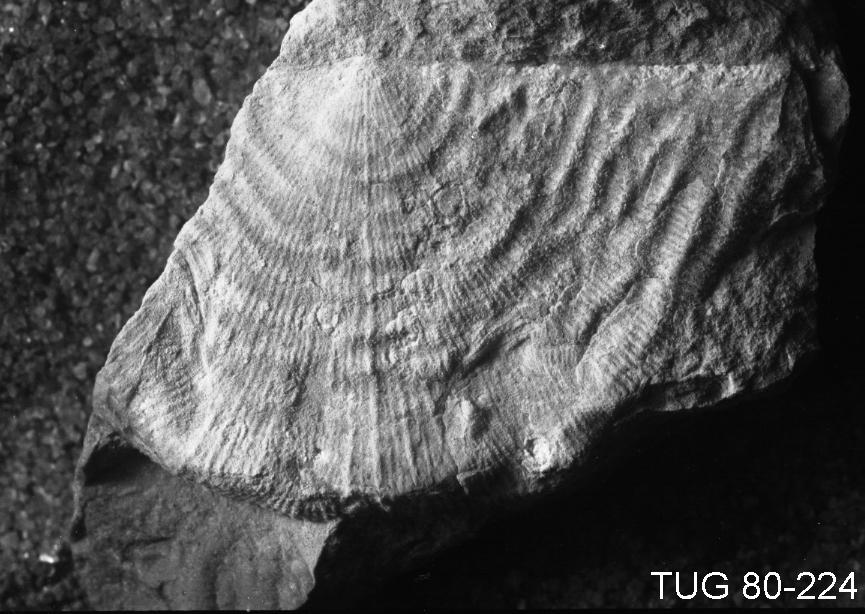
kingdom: Animalia
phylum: Brachiopoda
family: Strophomenidae
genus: Leptaena
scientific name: Leptaena
